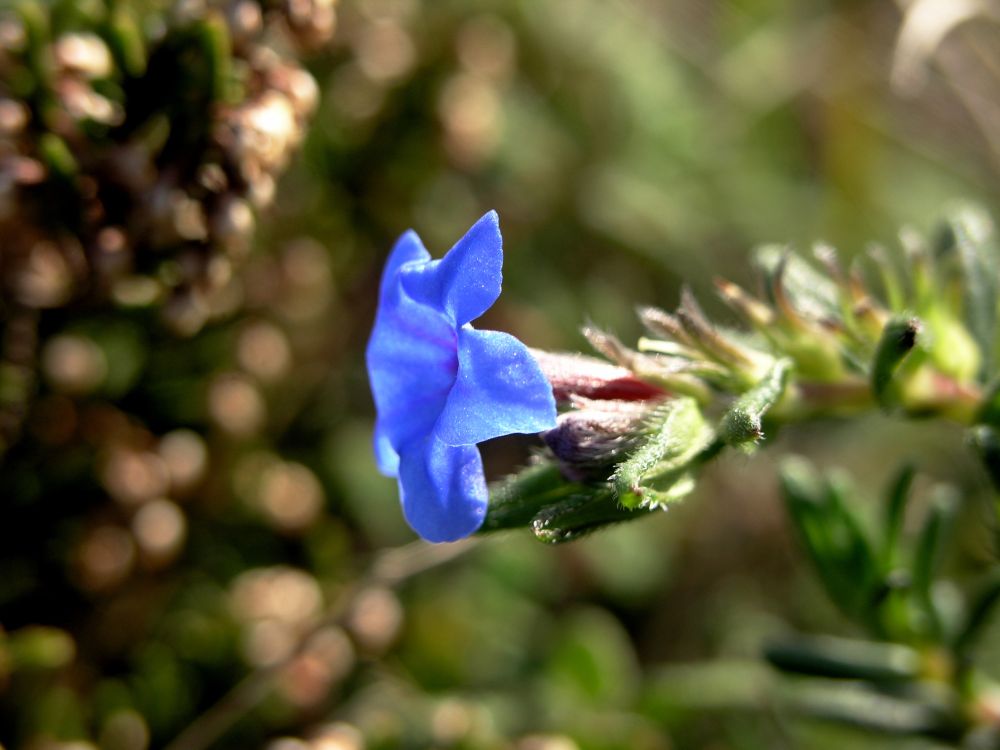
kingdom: Plantae
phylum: Tracheophyta
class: Magnoliopsida
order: Boraginales
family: Boraginaceae
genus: Glandora
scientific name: Glandora prostrata
